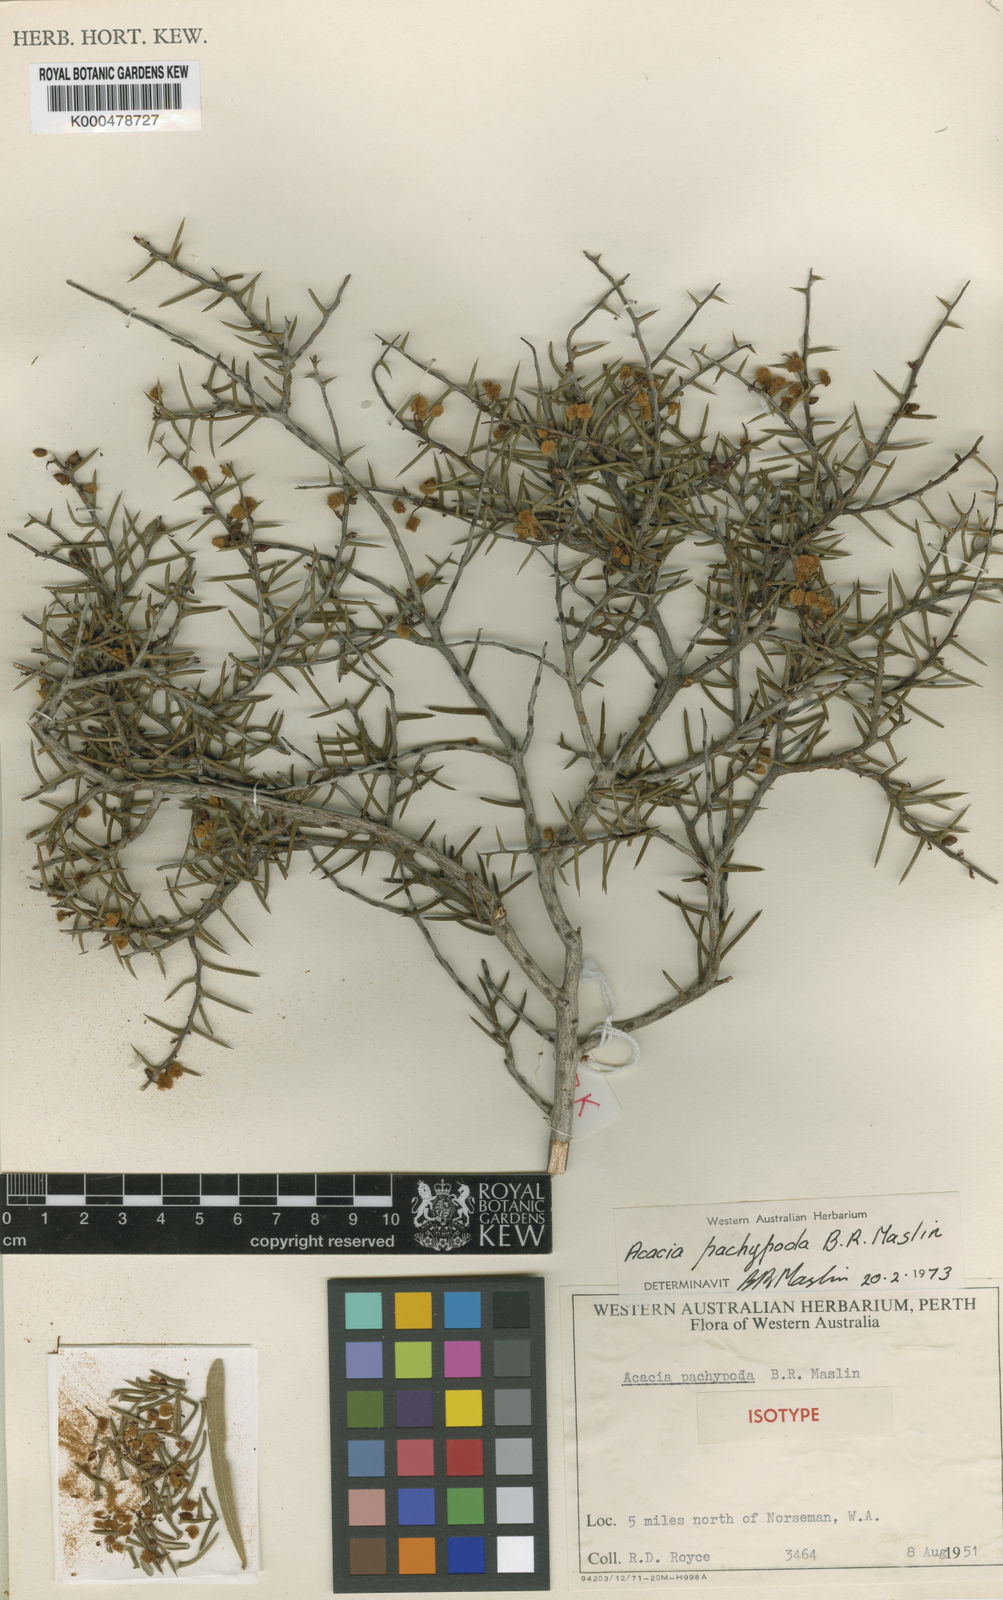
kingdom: Plantae
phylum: Tracheophyta
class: Magnoliopsida
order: Fabales
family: Fabaceae
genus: Acacia
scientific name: Acacia pachypoda
